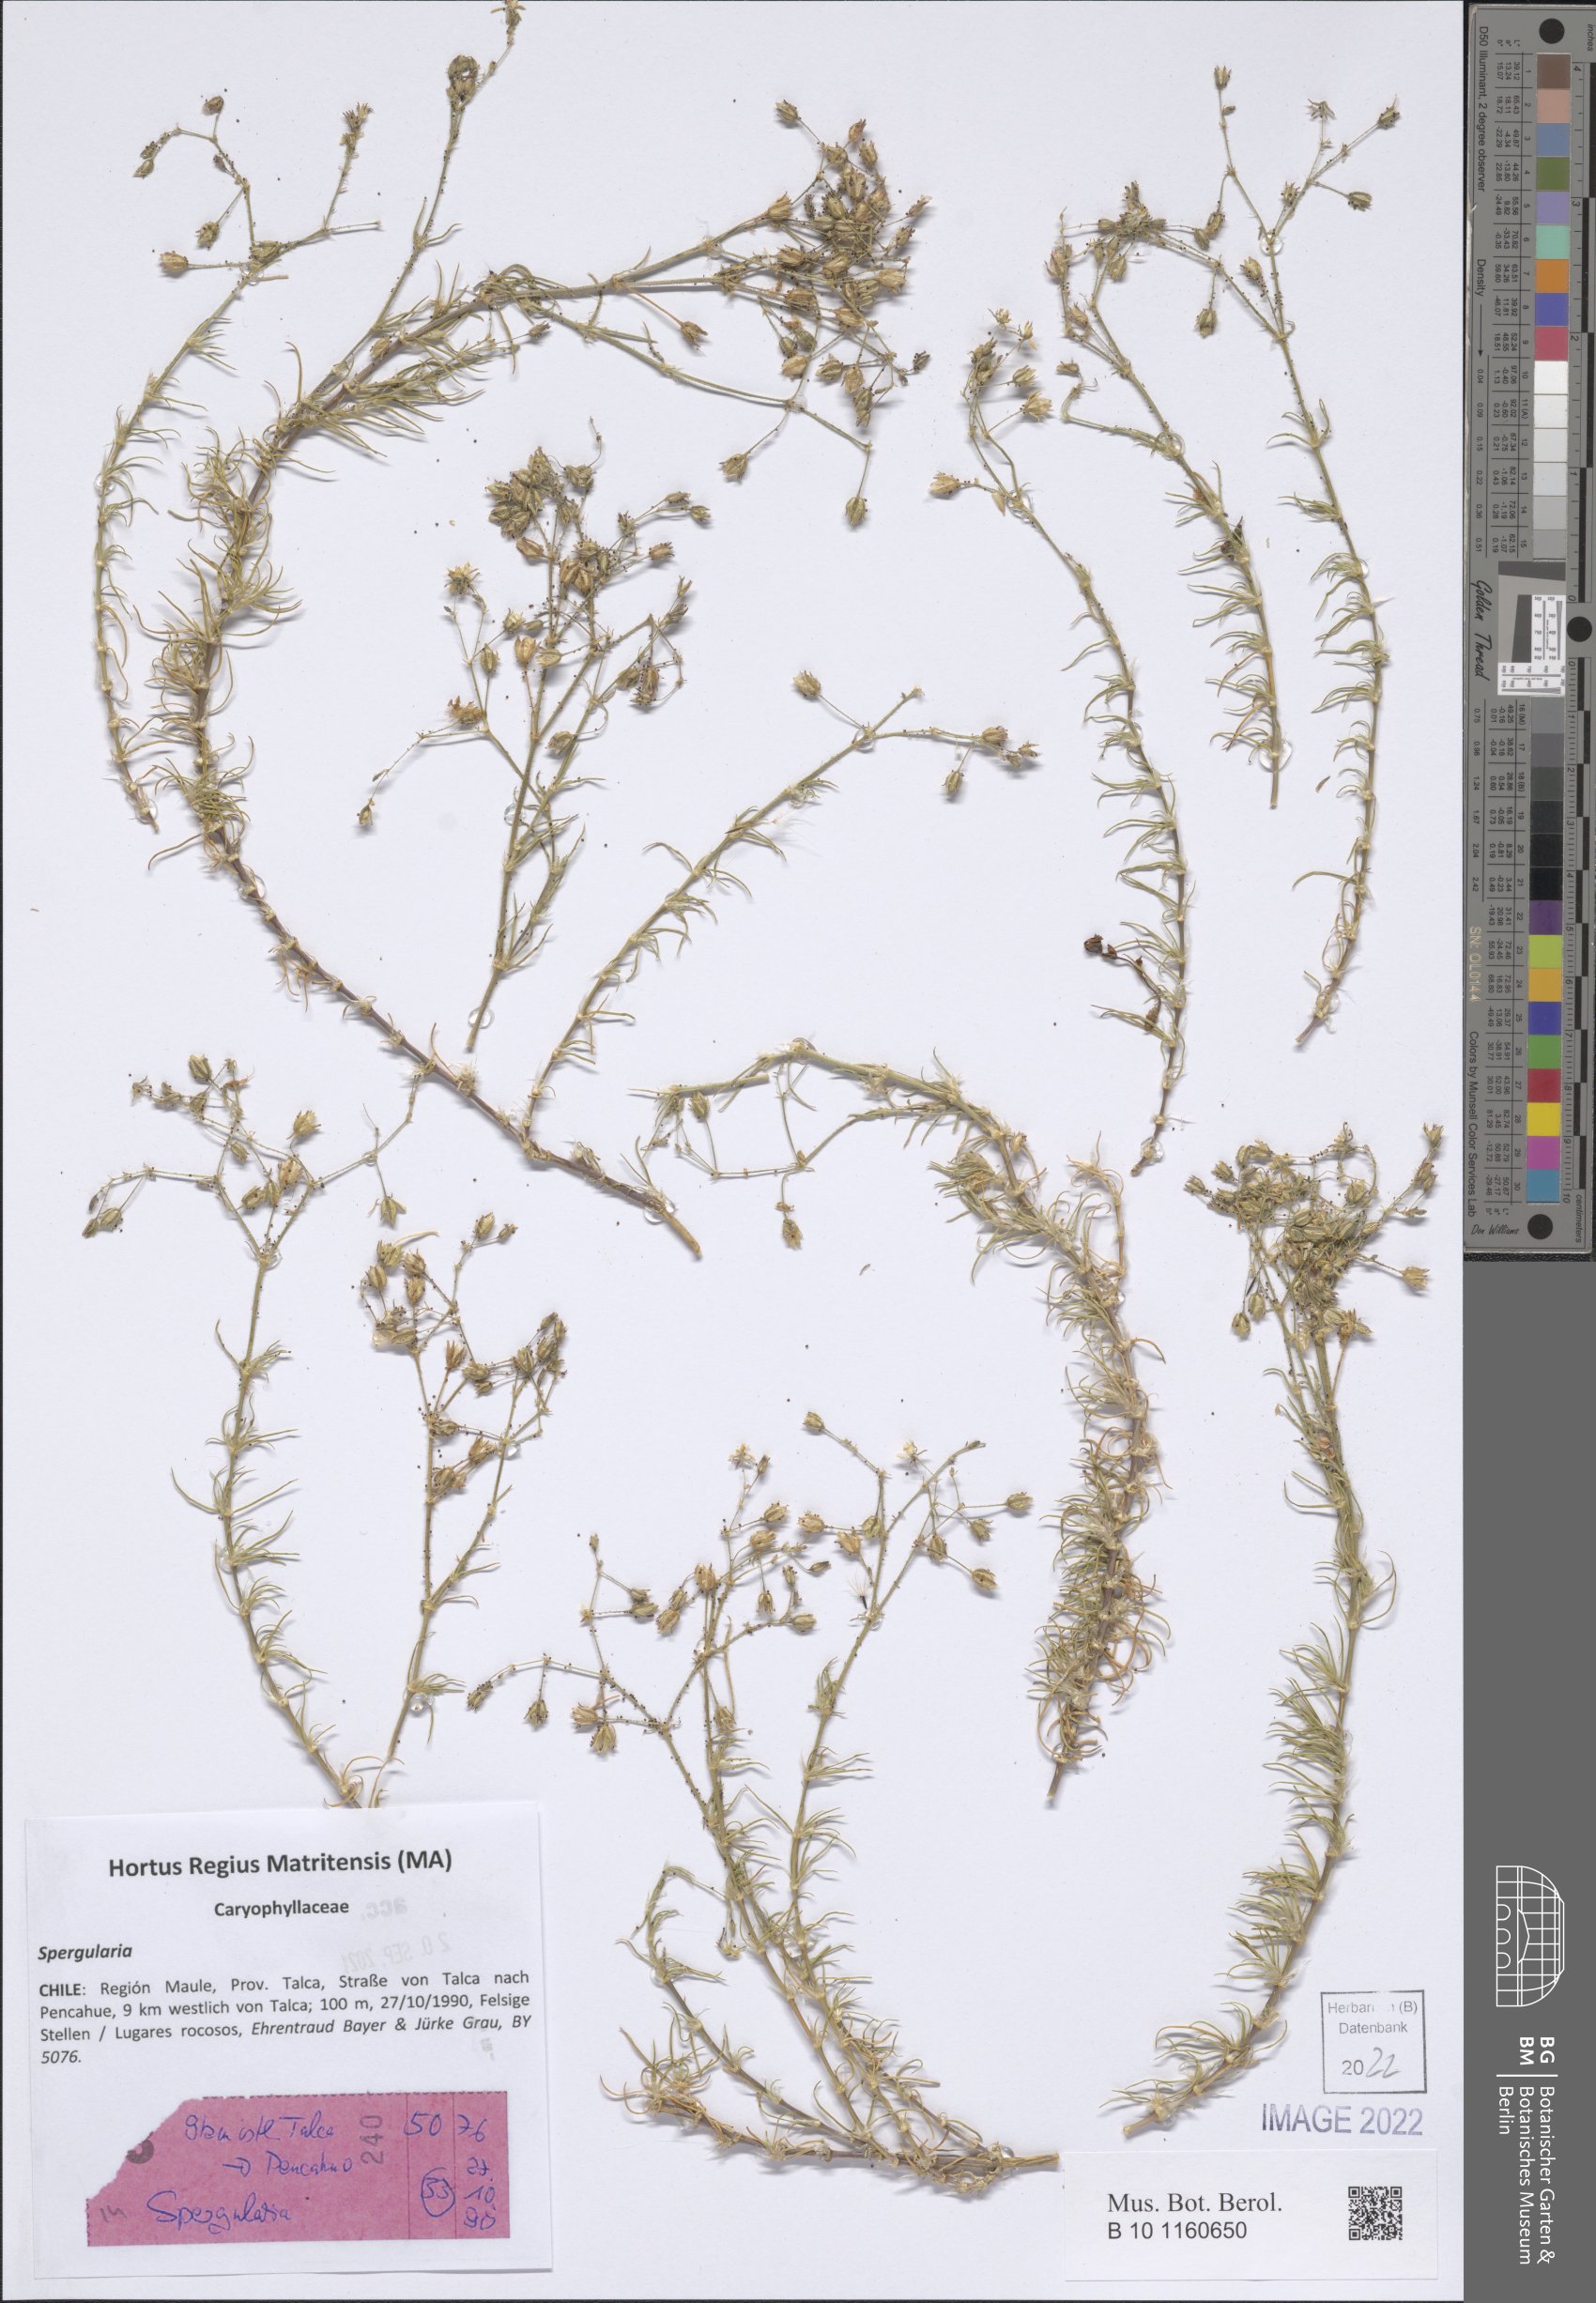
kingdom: Plantae
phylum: Tracheophyta
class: Magnoliopsida
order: Caryophyllales
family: Caryophyllaceae
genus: Spergularia
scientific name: Spergularia
